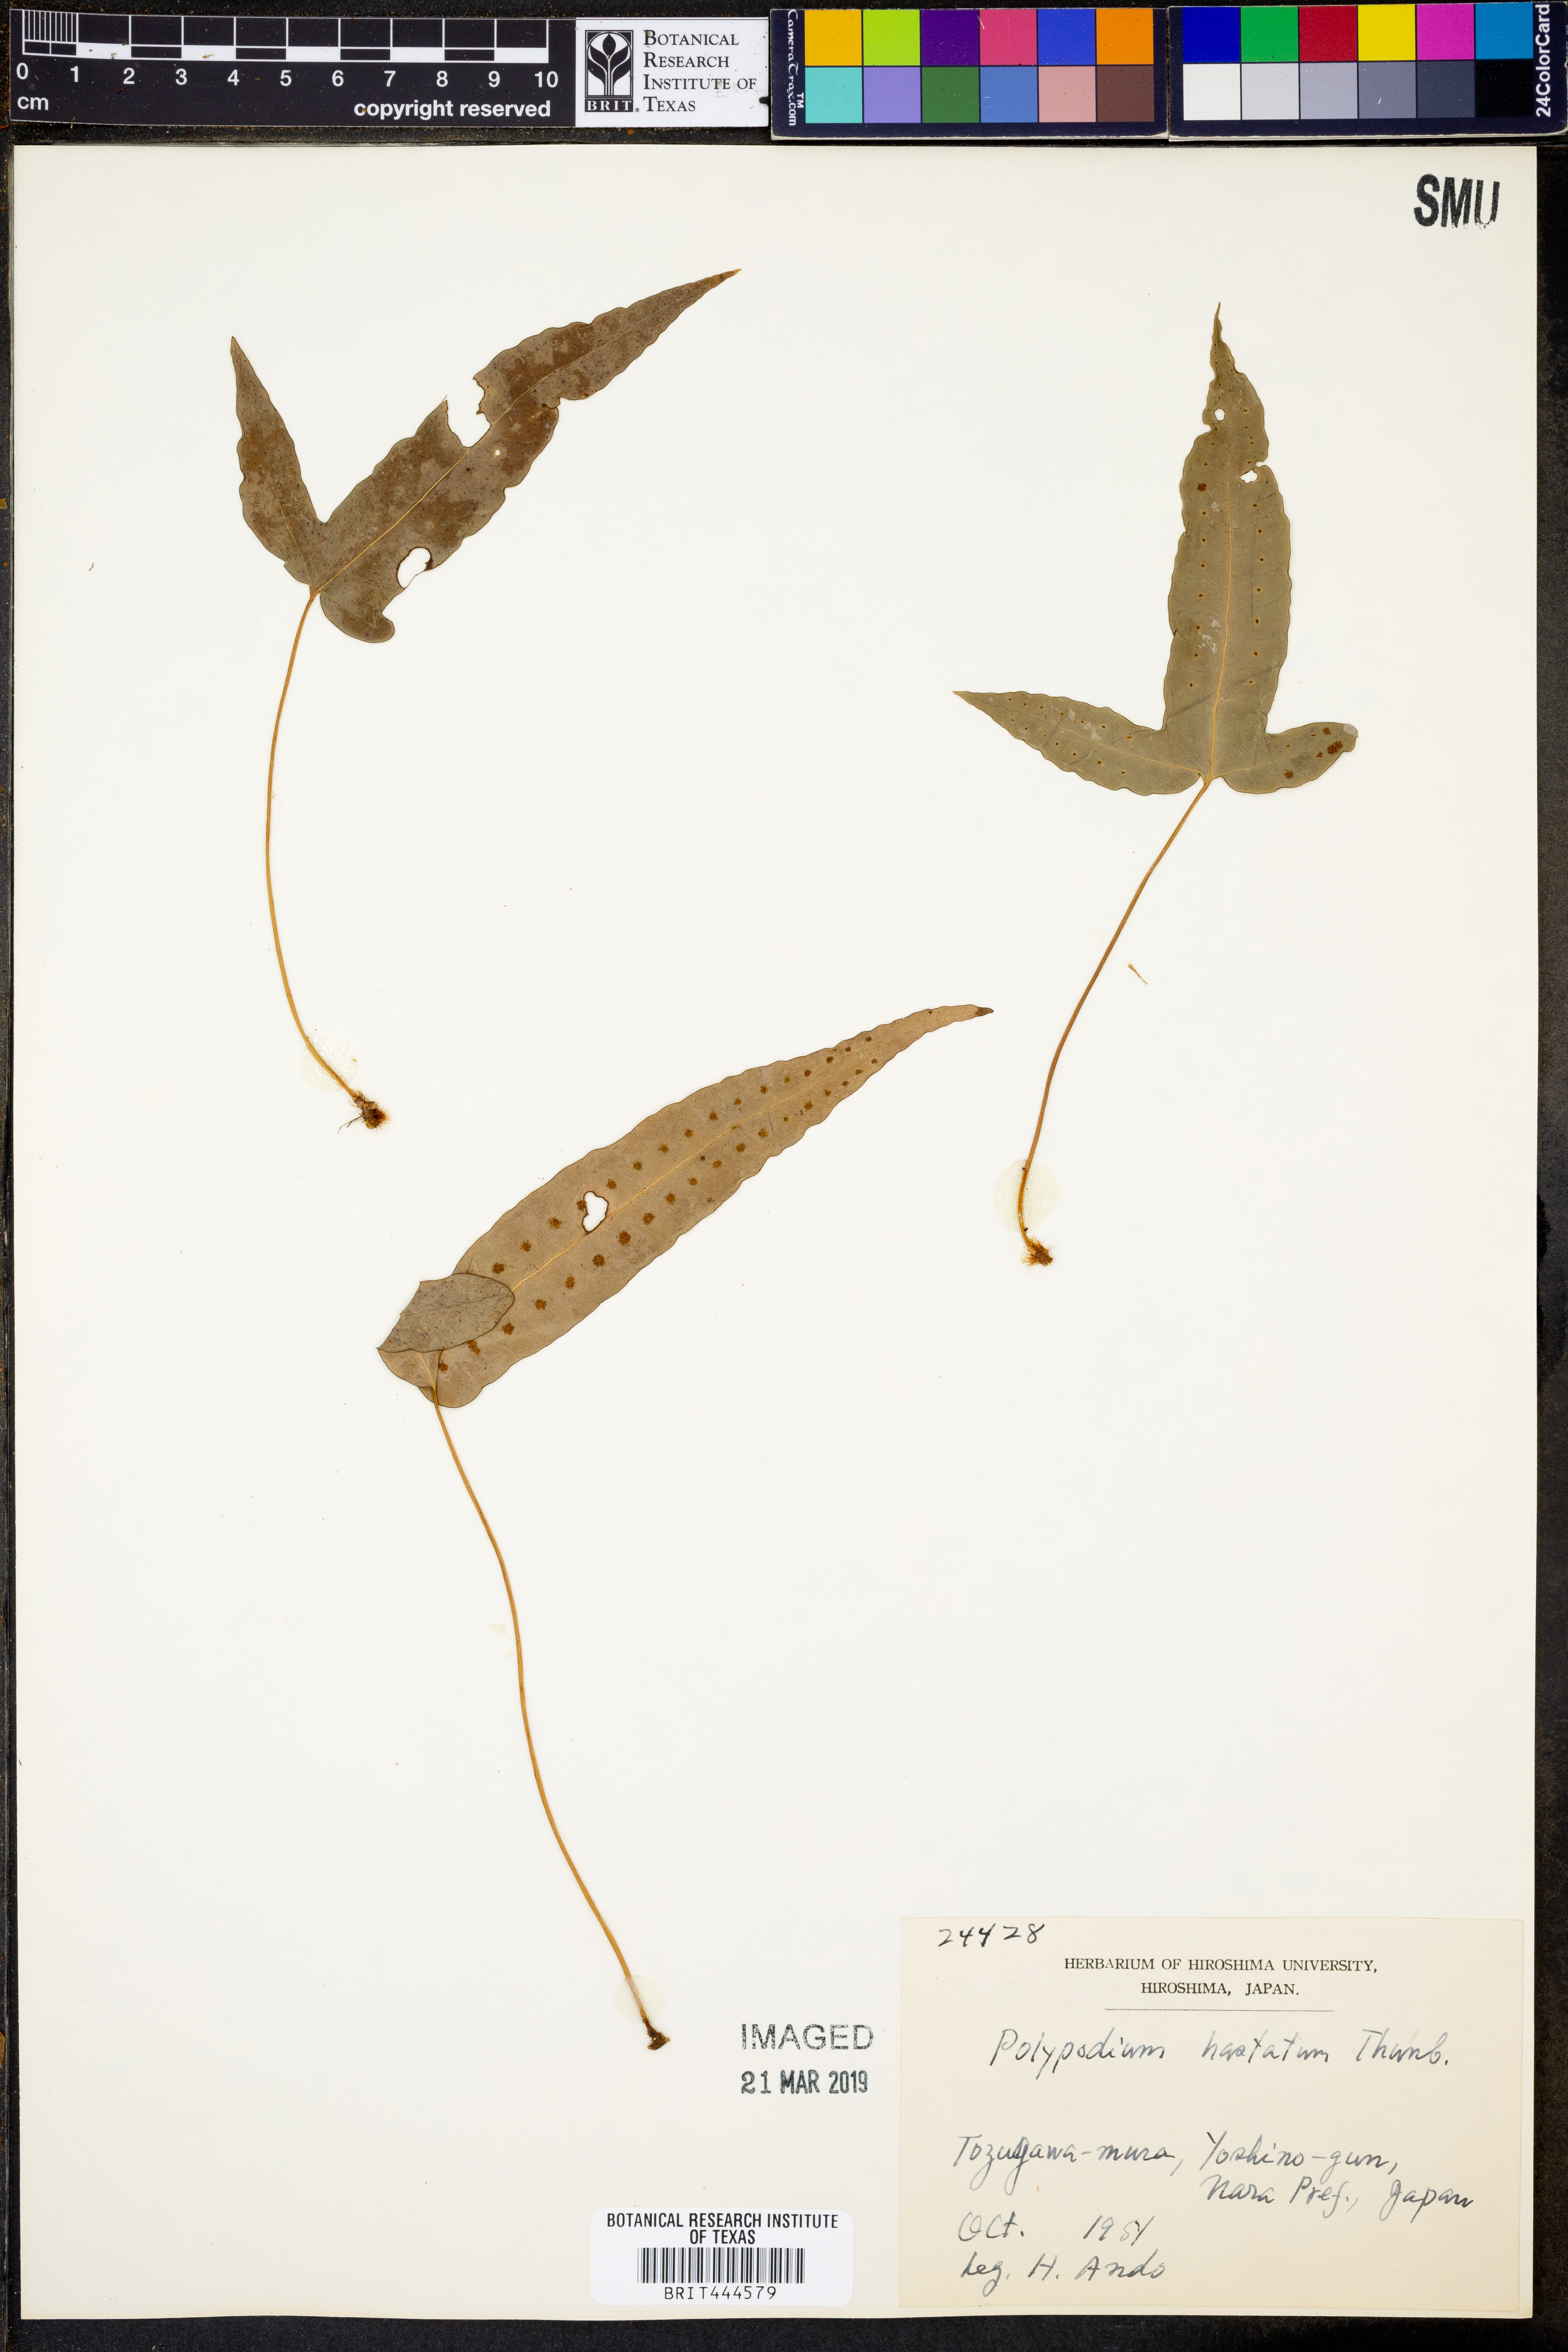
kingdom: Plantae
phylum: Tracheophyta
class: Polypodiopsida
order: Polypodiales
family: Polypodiaceae
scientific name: Polypodiaceae
